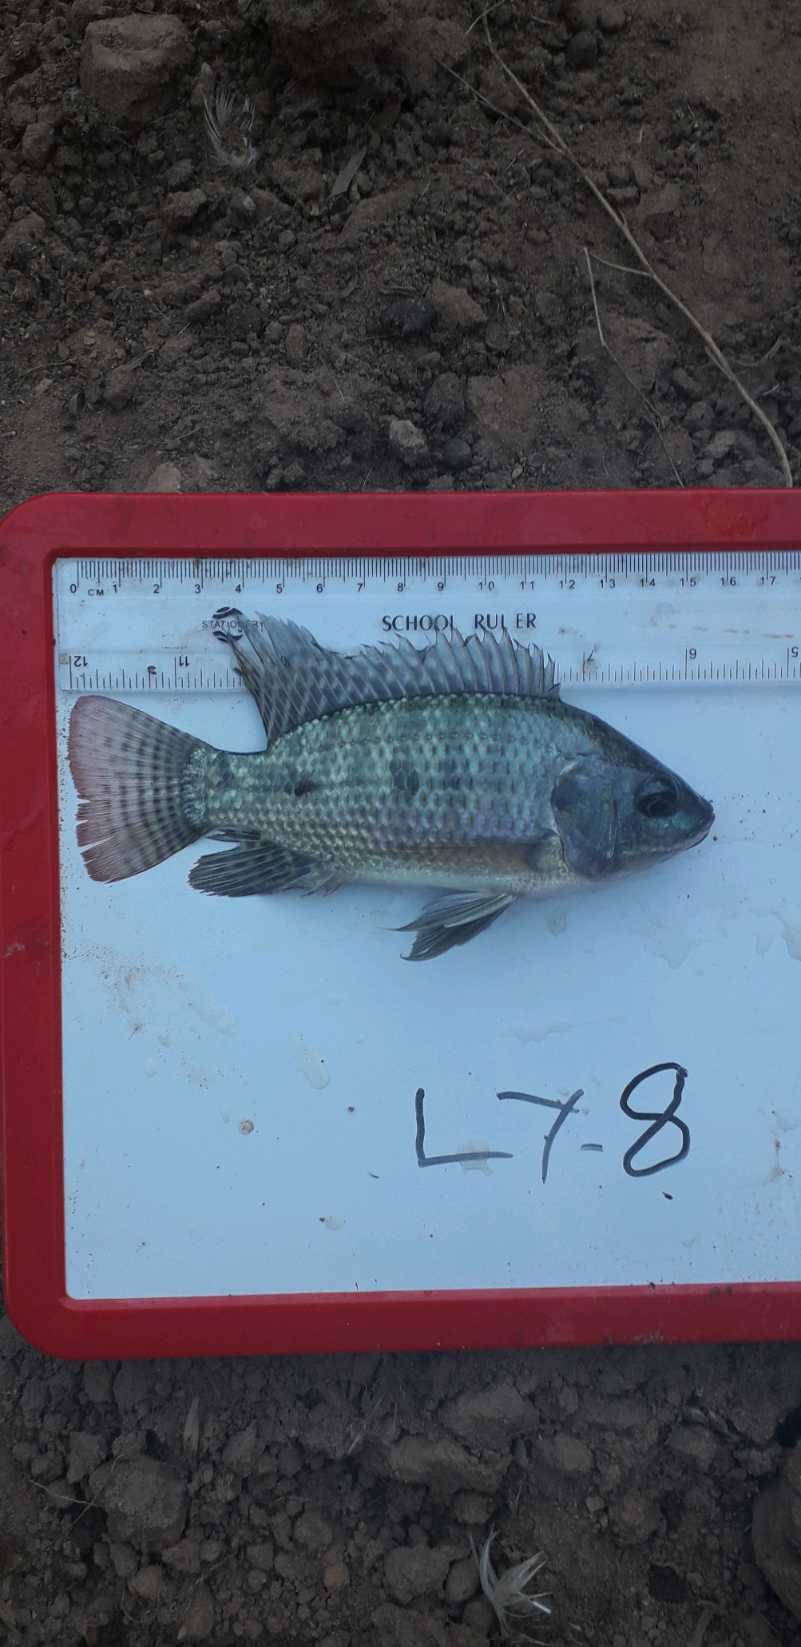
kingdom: Animalia
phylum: Chordata
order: Perciformes
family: Cichlidae
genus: Oreochromis
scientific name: Oreochromis niloticus
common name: Nile tilapia
